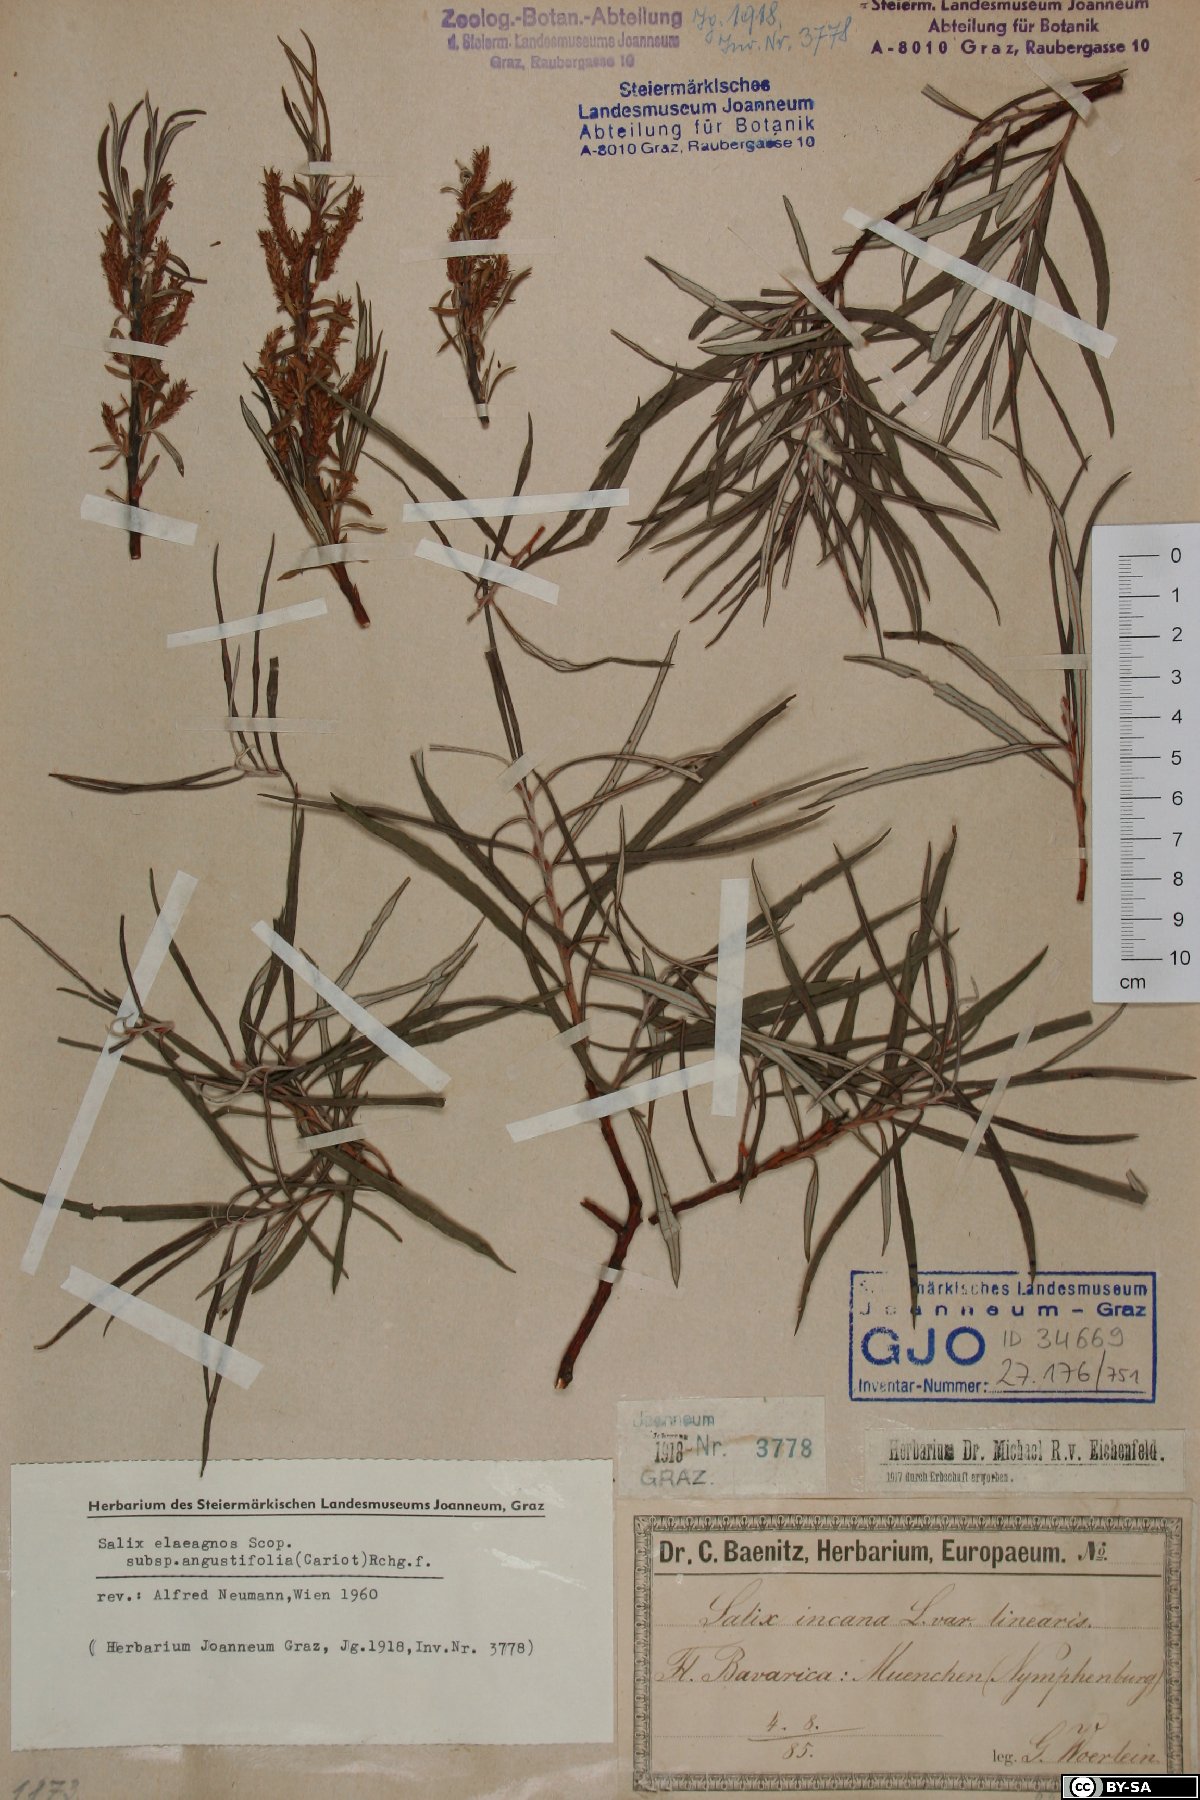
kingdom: Plantae
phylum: Tracheophyta
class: Magnoliopsida
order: Malpighiales
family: Salicaceae
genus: Salix
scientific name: Salix eleagnos
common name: Elaeagnus willow
